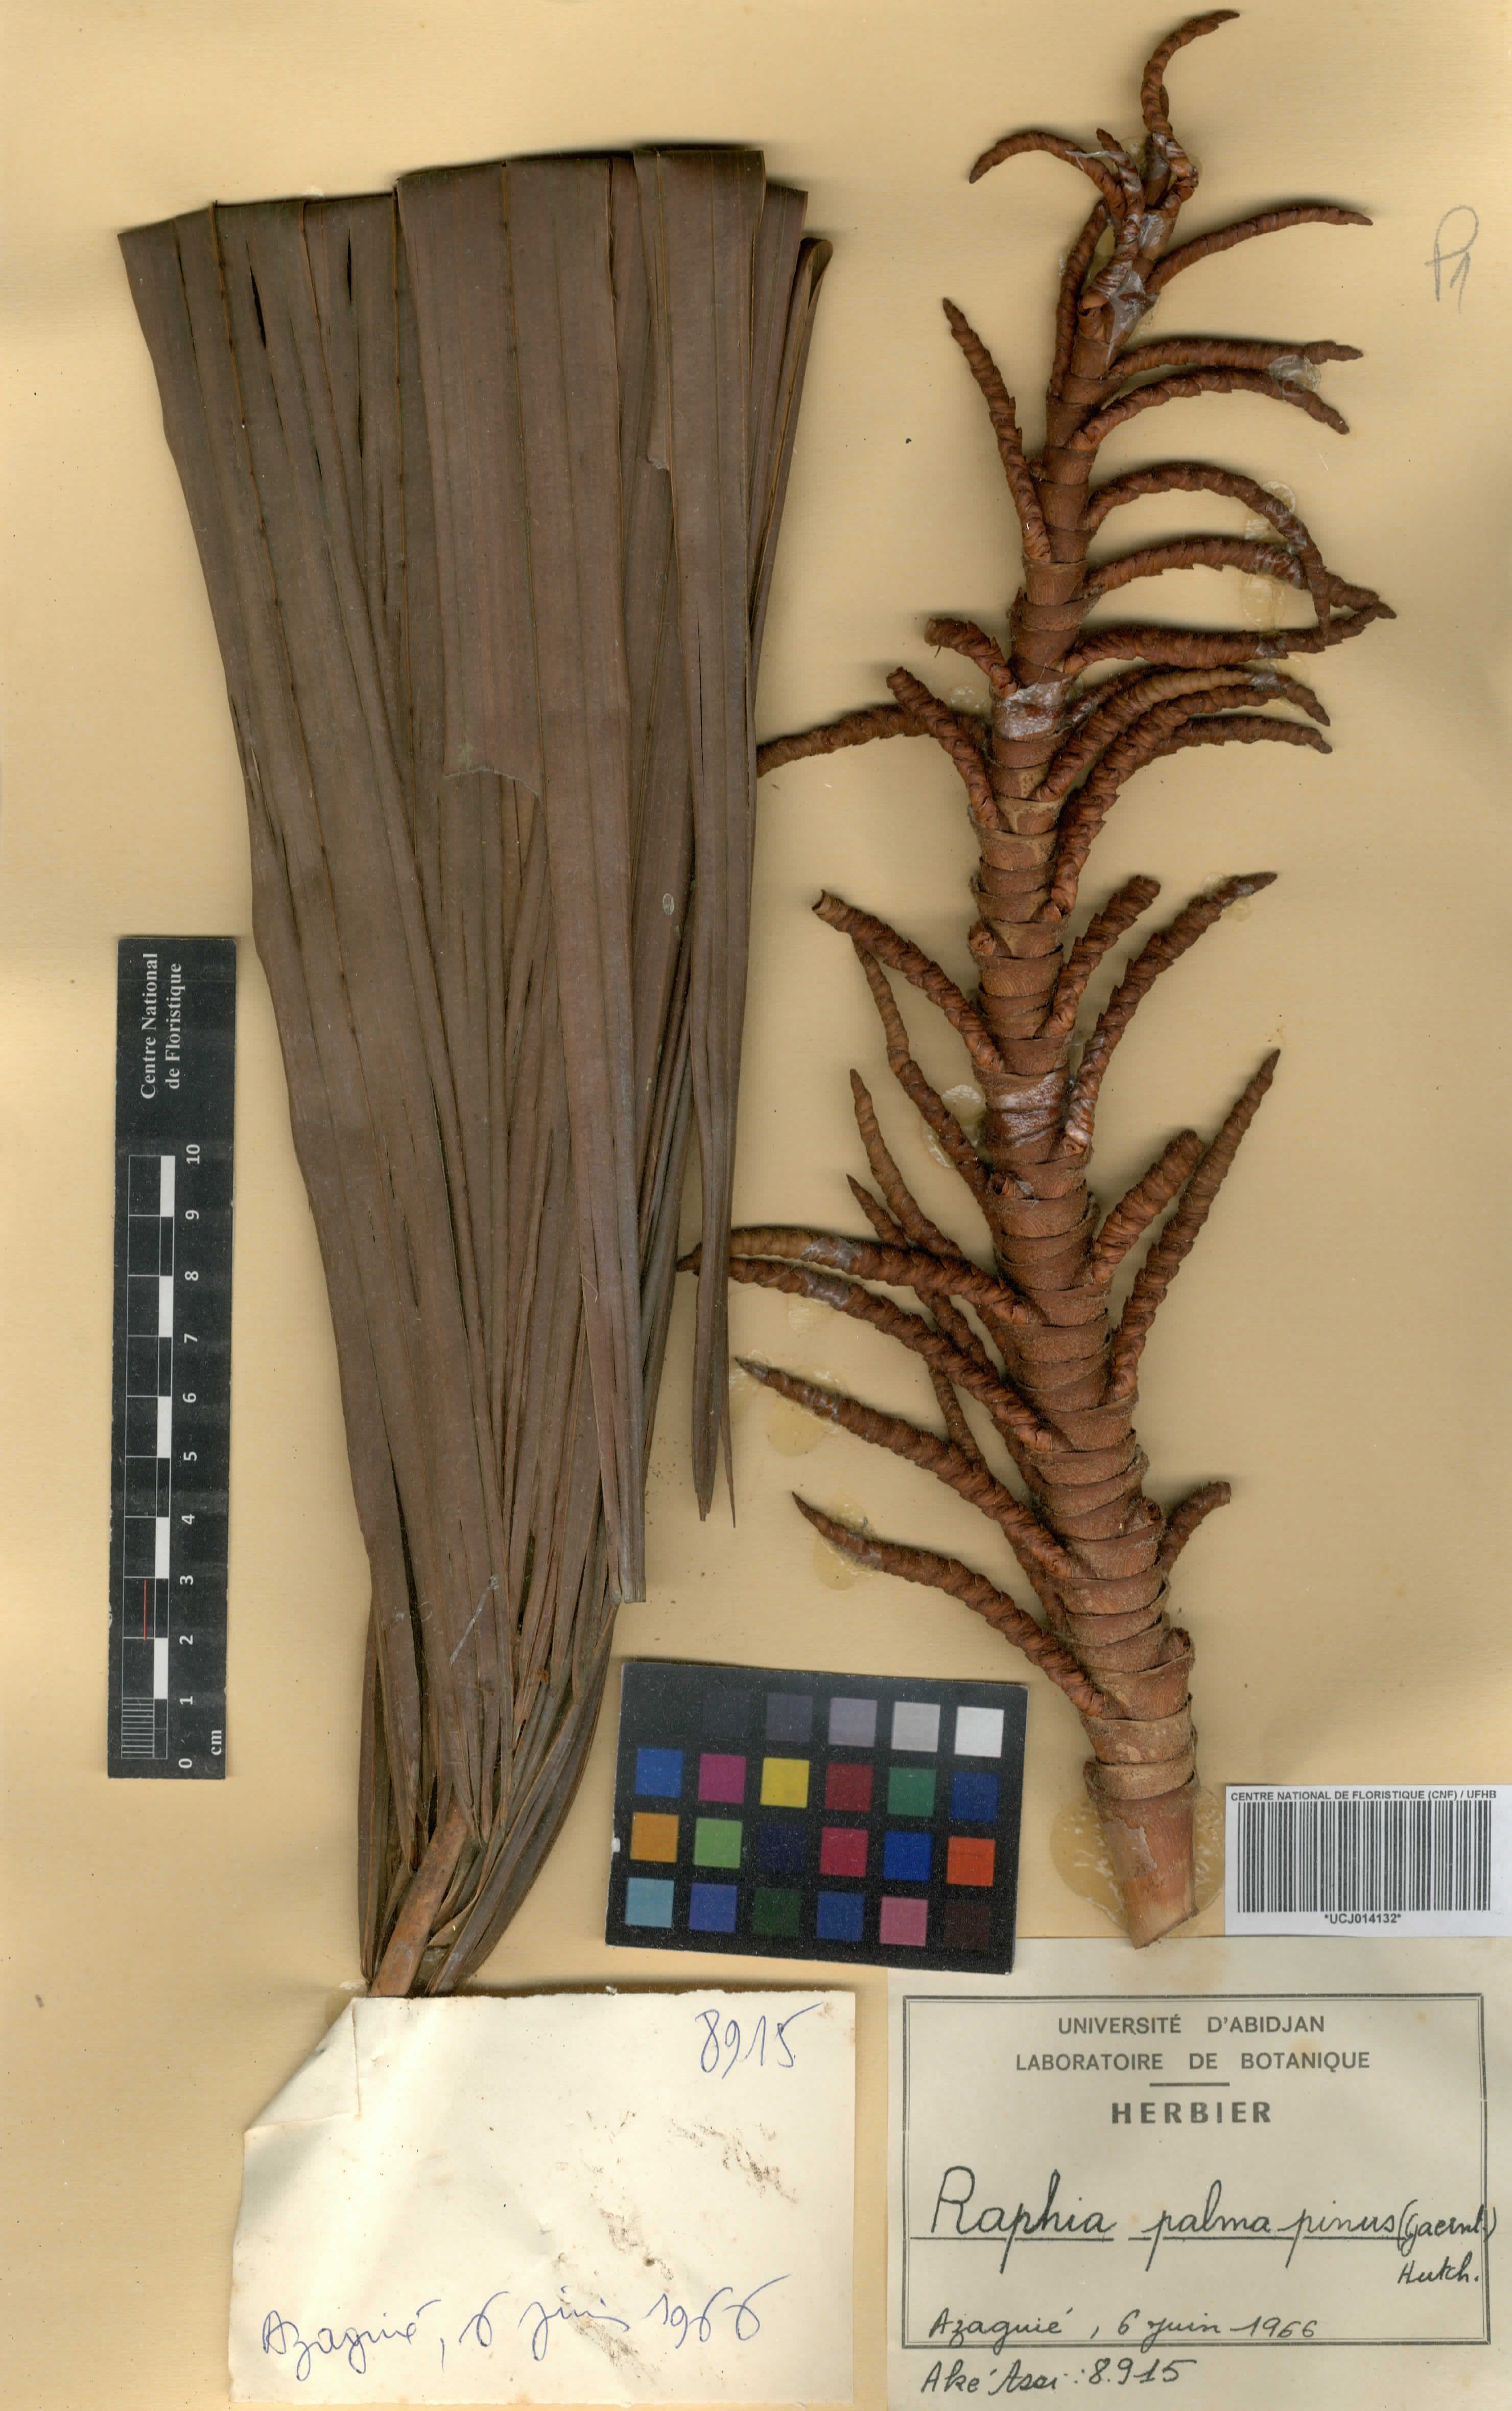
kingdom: Plantae
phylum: Tracheophyta
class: Liliopsida
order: Arecales
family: Arecaceae
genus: Raphia
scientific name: Raphia palma-pinus
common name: Raphia palm
